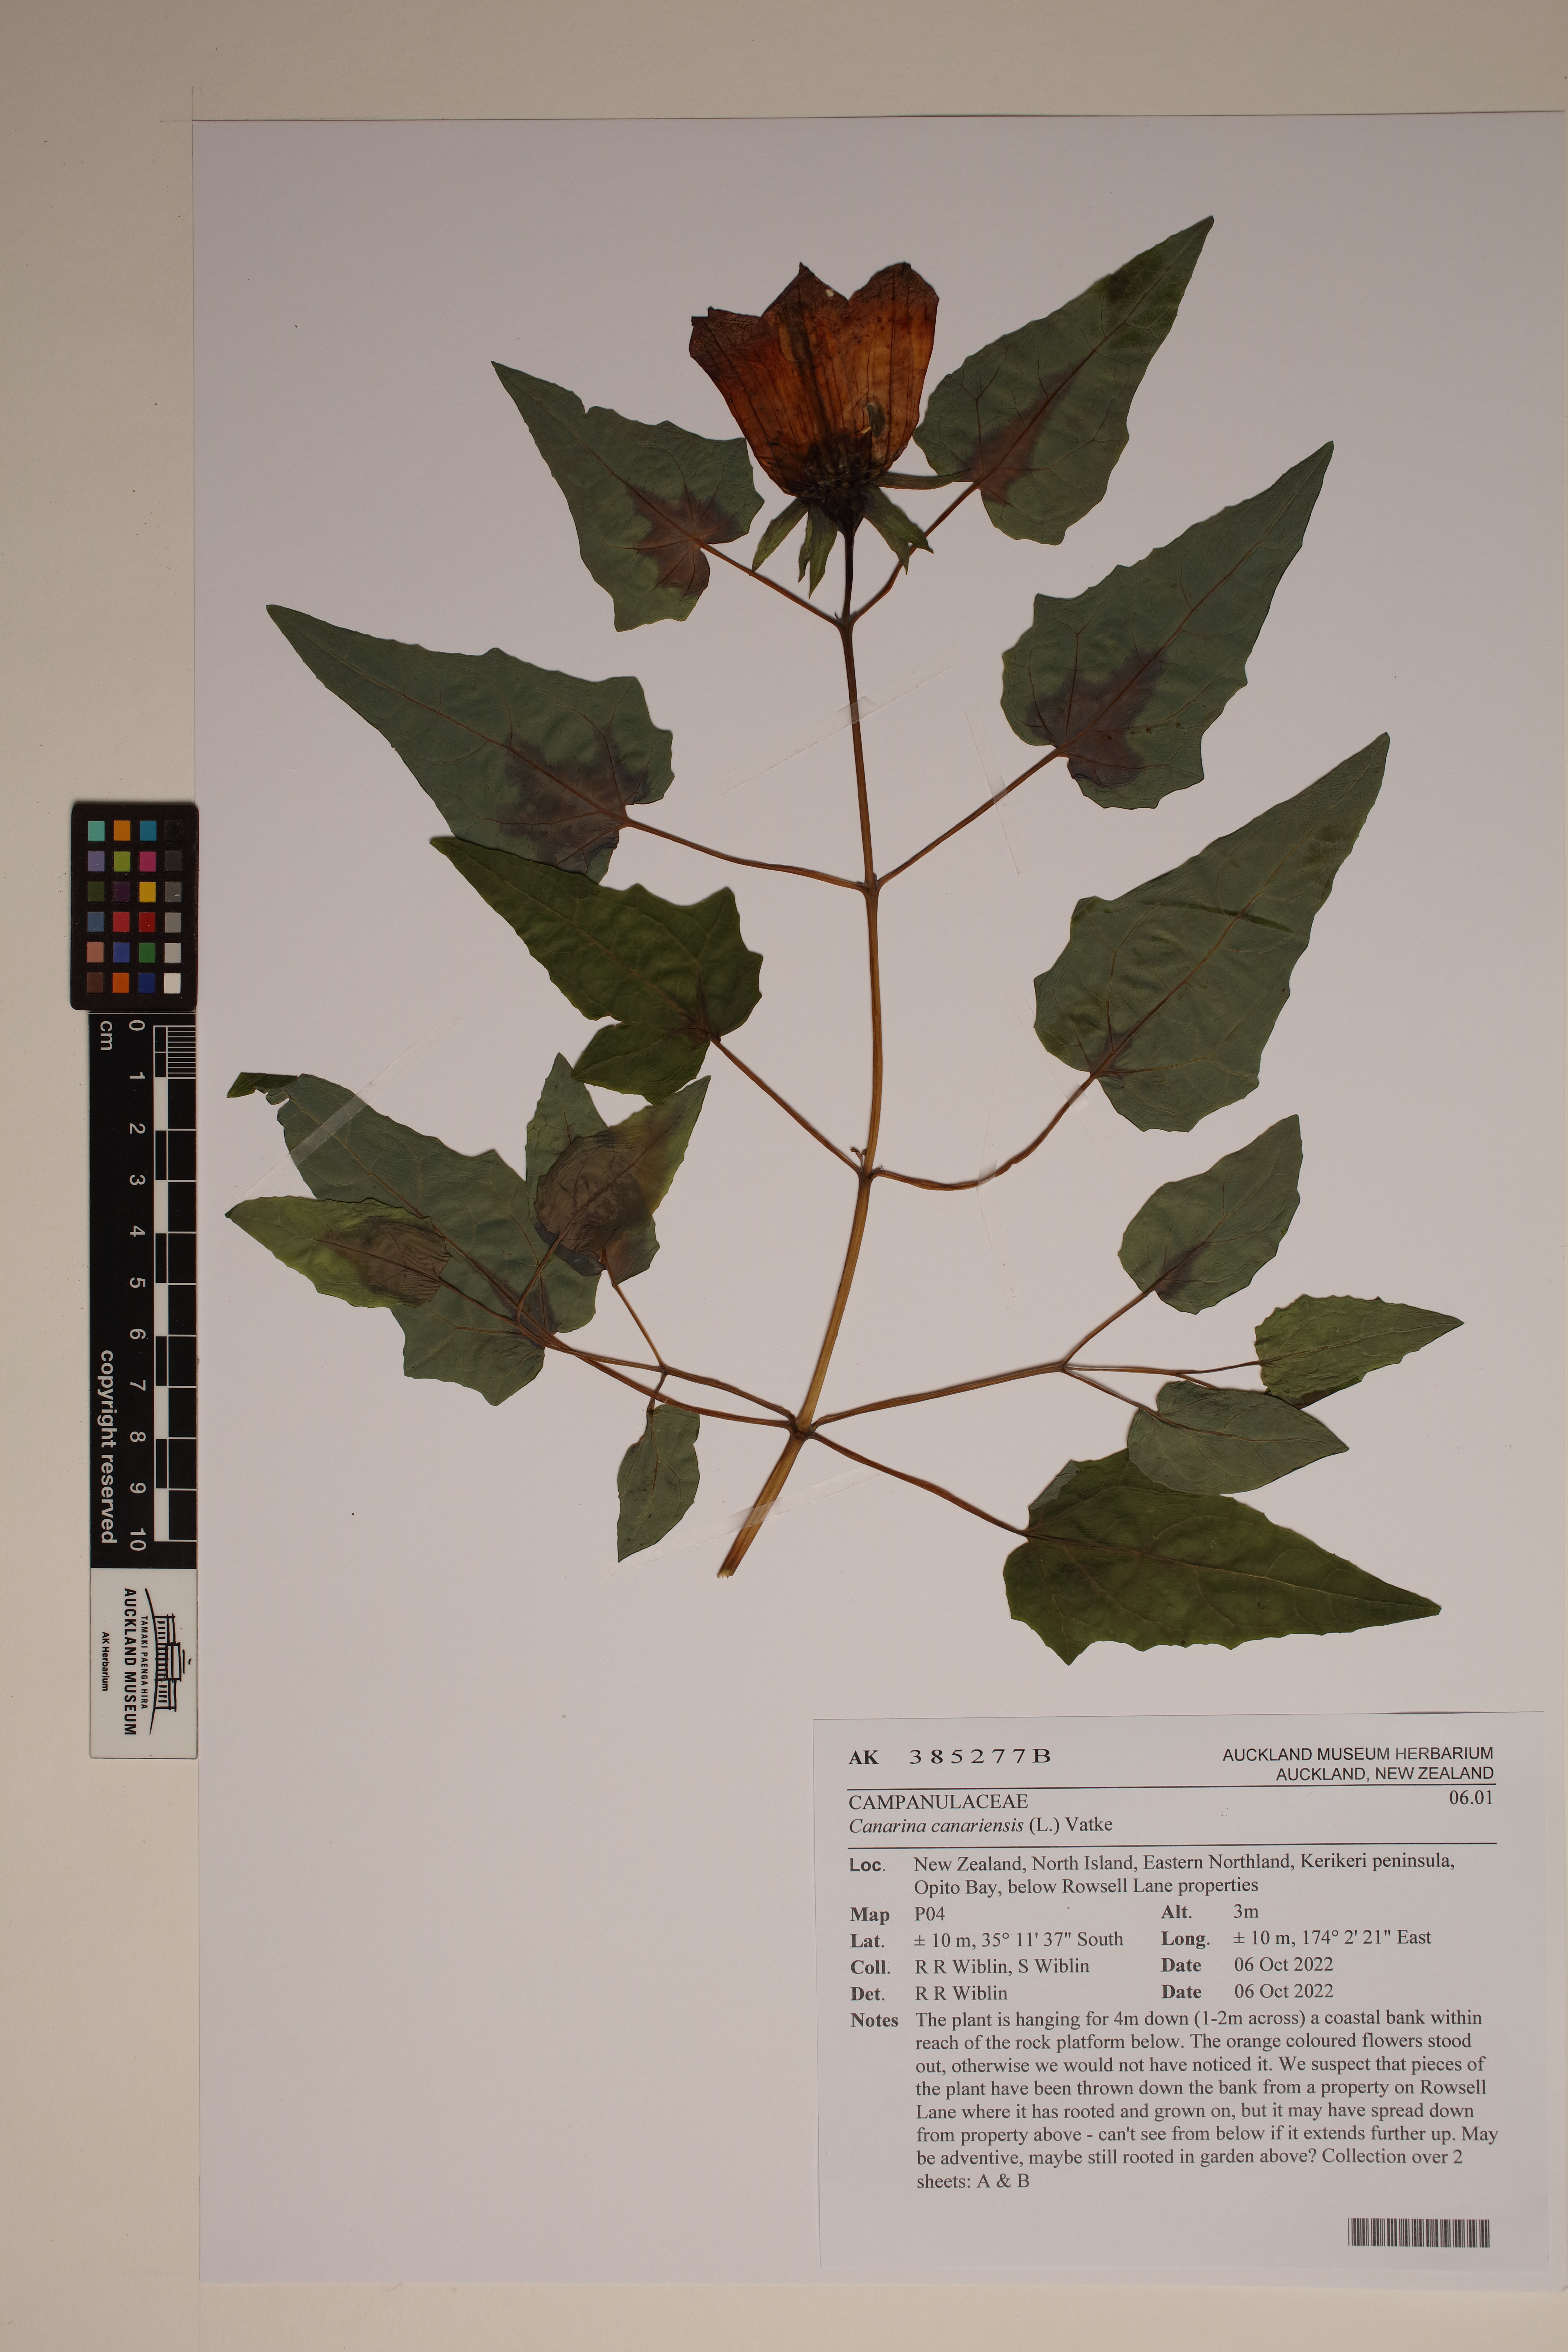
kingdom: Plantae
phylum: Tracheophyta
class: Magnoliopsida
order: Asterales
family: Campanulaceae
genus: Canarina
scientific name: Canarina canariensis
